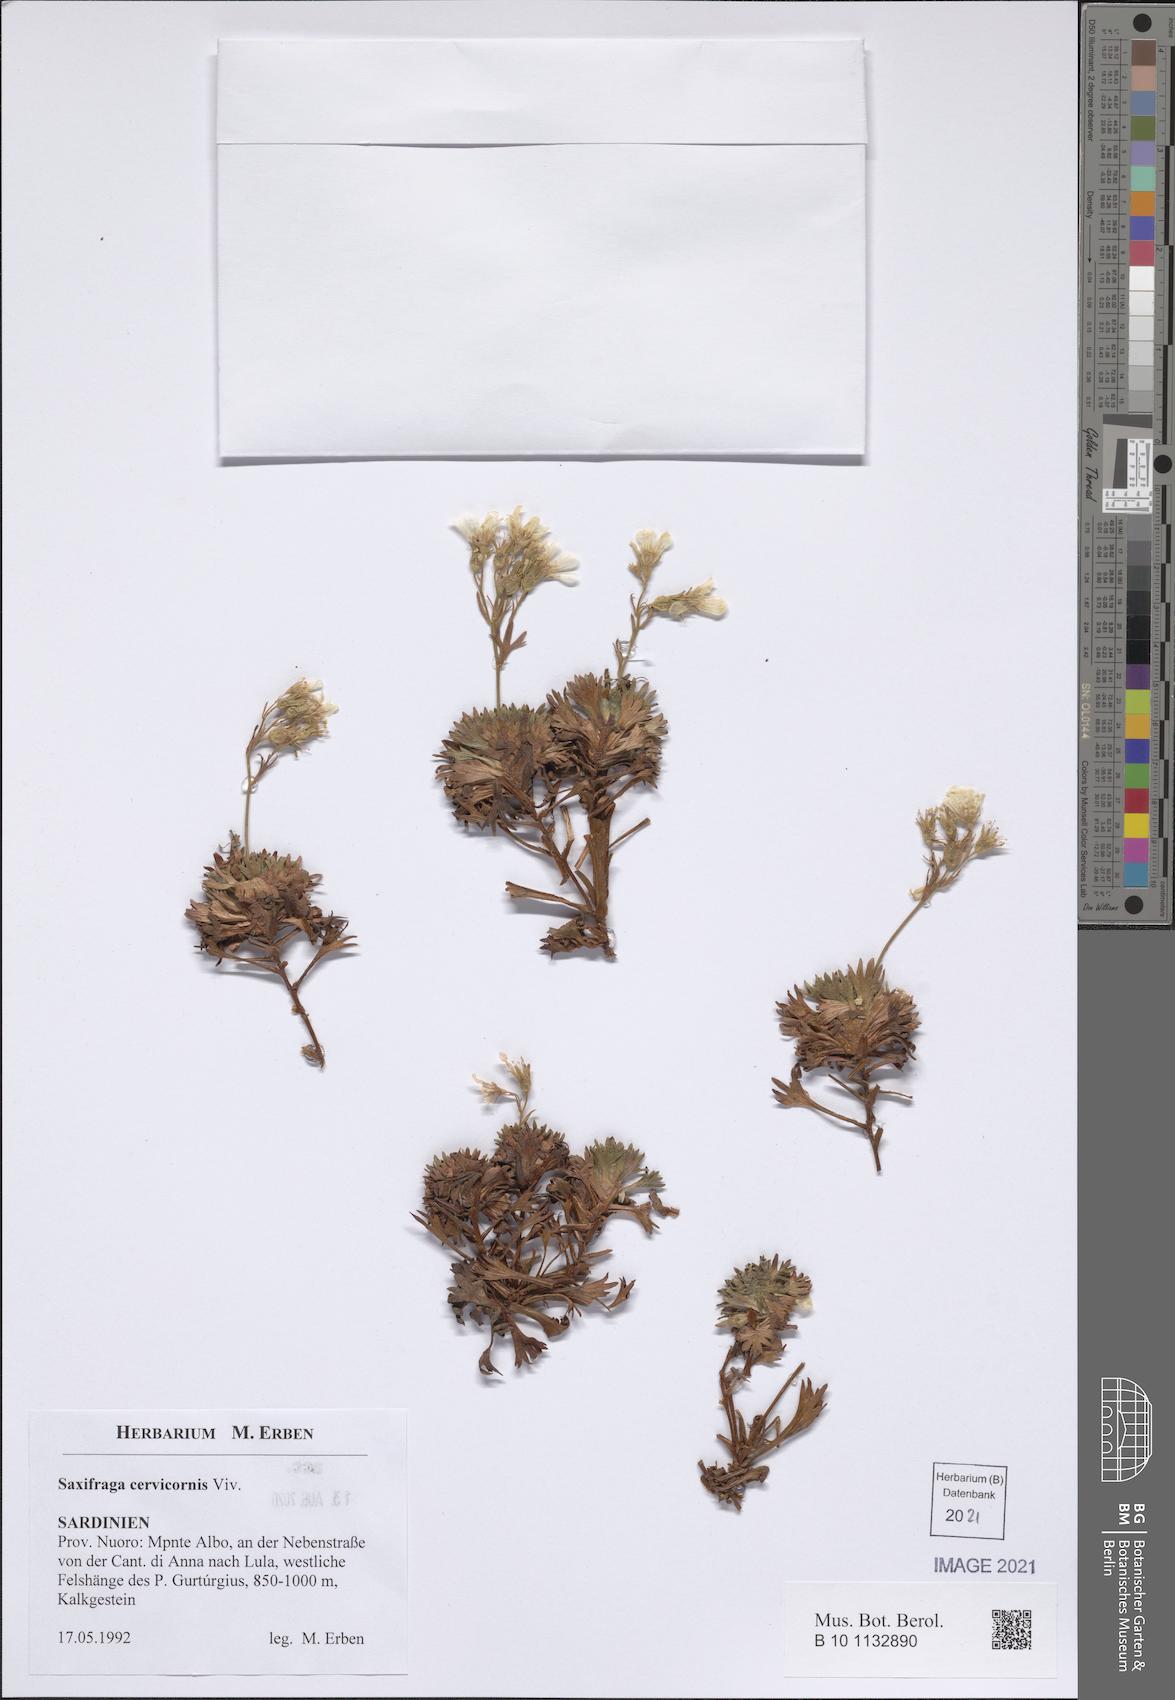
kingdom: Plantae
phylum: Tracheophyta
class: Magnoliopsida
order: Saxifragales
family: Saxifragaceae
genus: Saxifraga
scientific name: Saxifraga pedemontana
